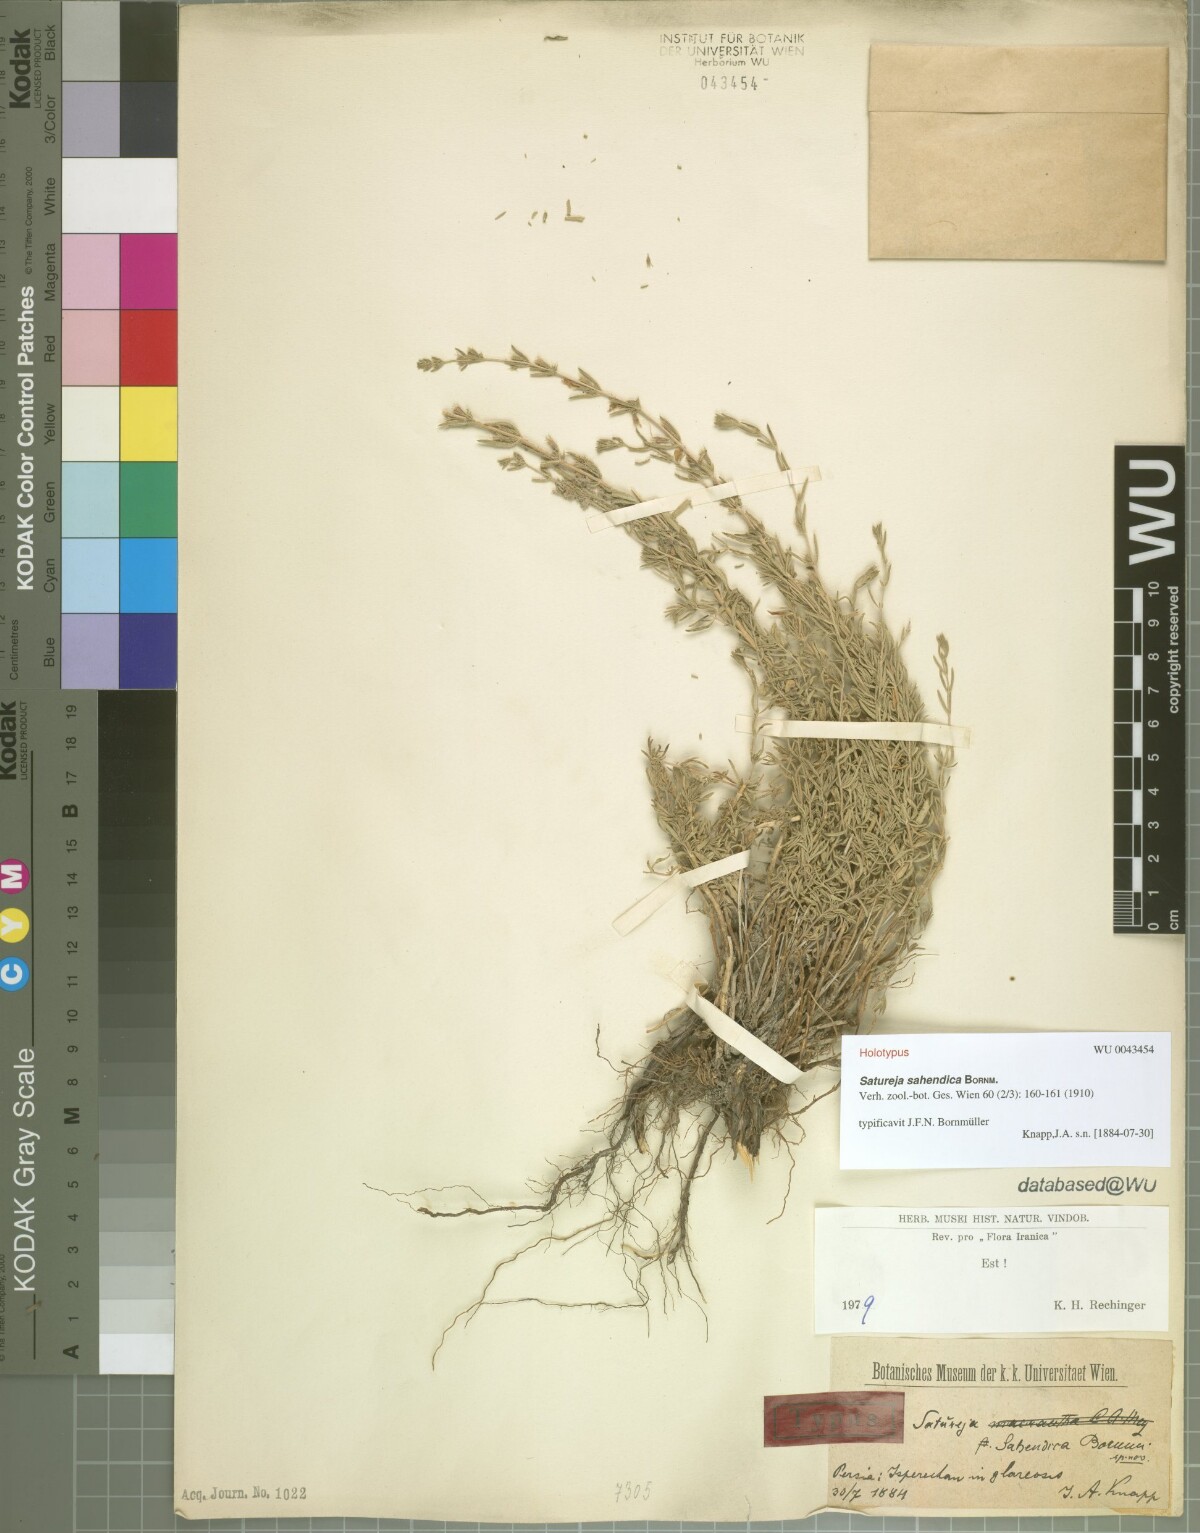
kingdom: Plantae
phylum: Tracheophyta
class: Magnoliopsida
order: Lamiales
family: Lamiaceae
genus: Satureja
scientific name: Satureja sahendica
